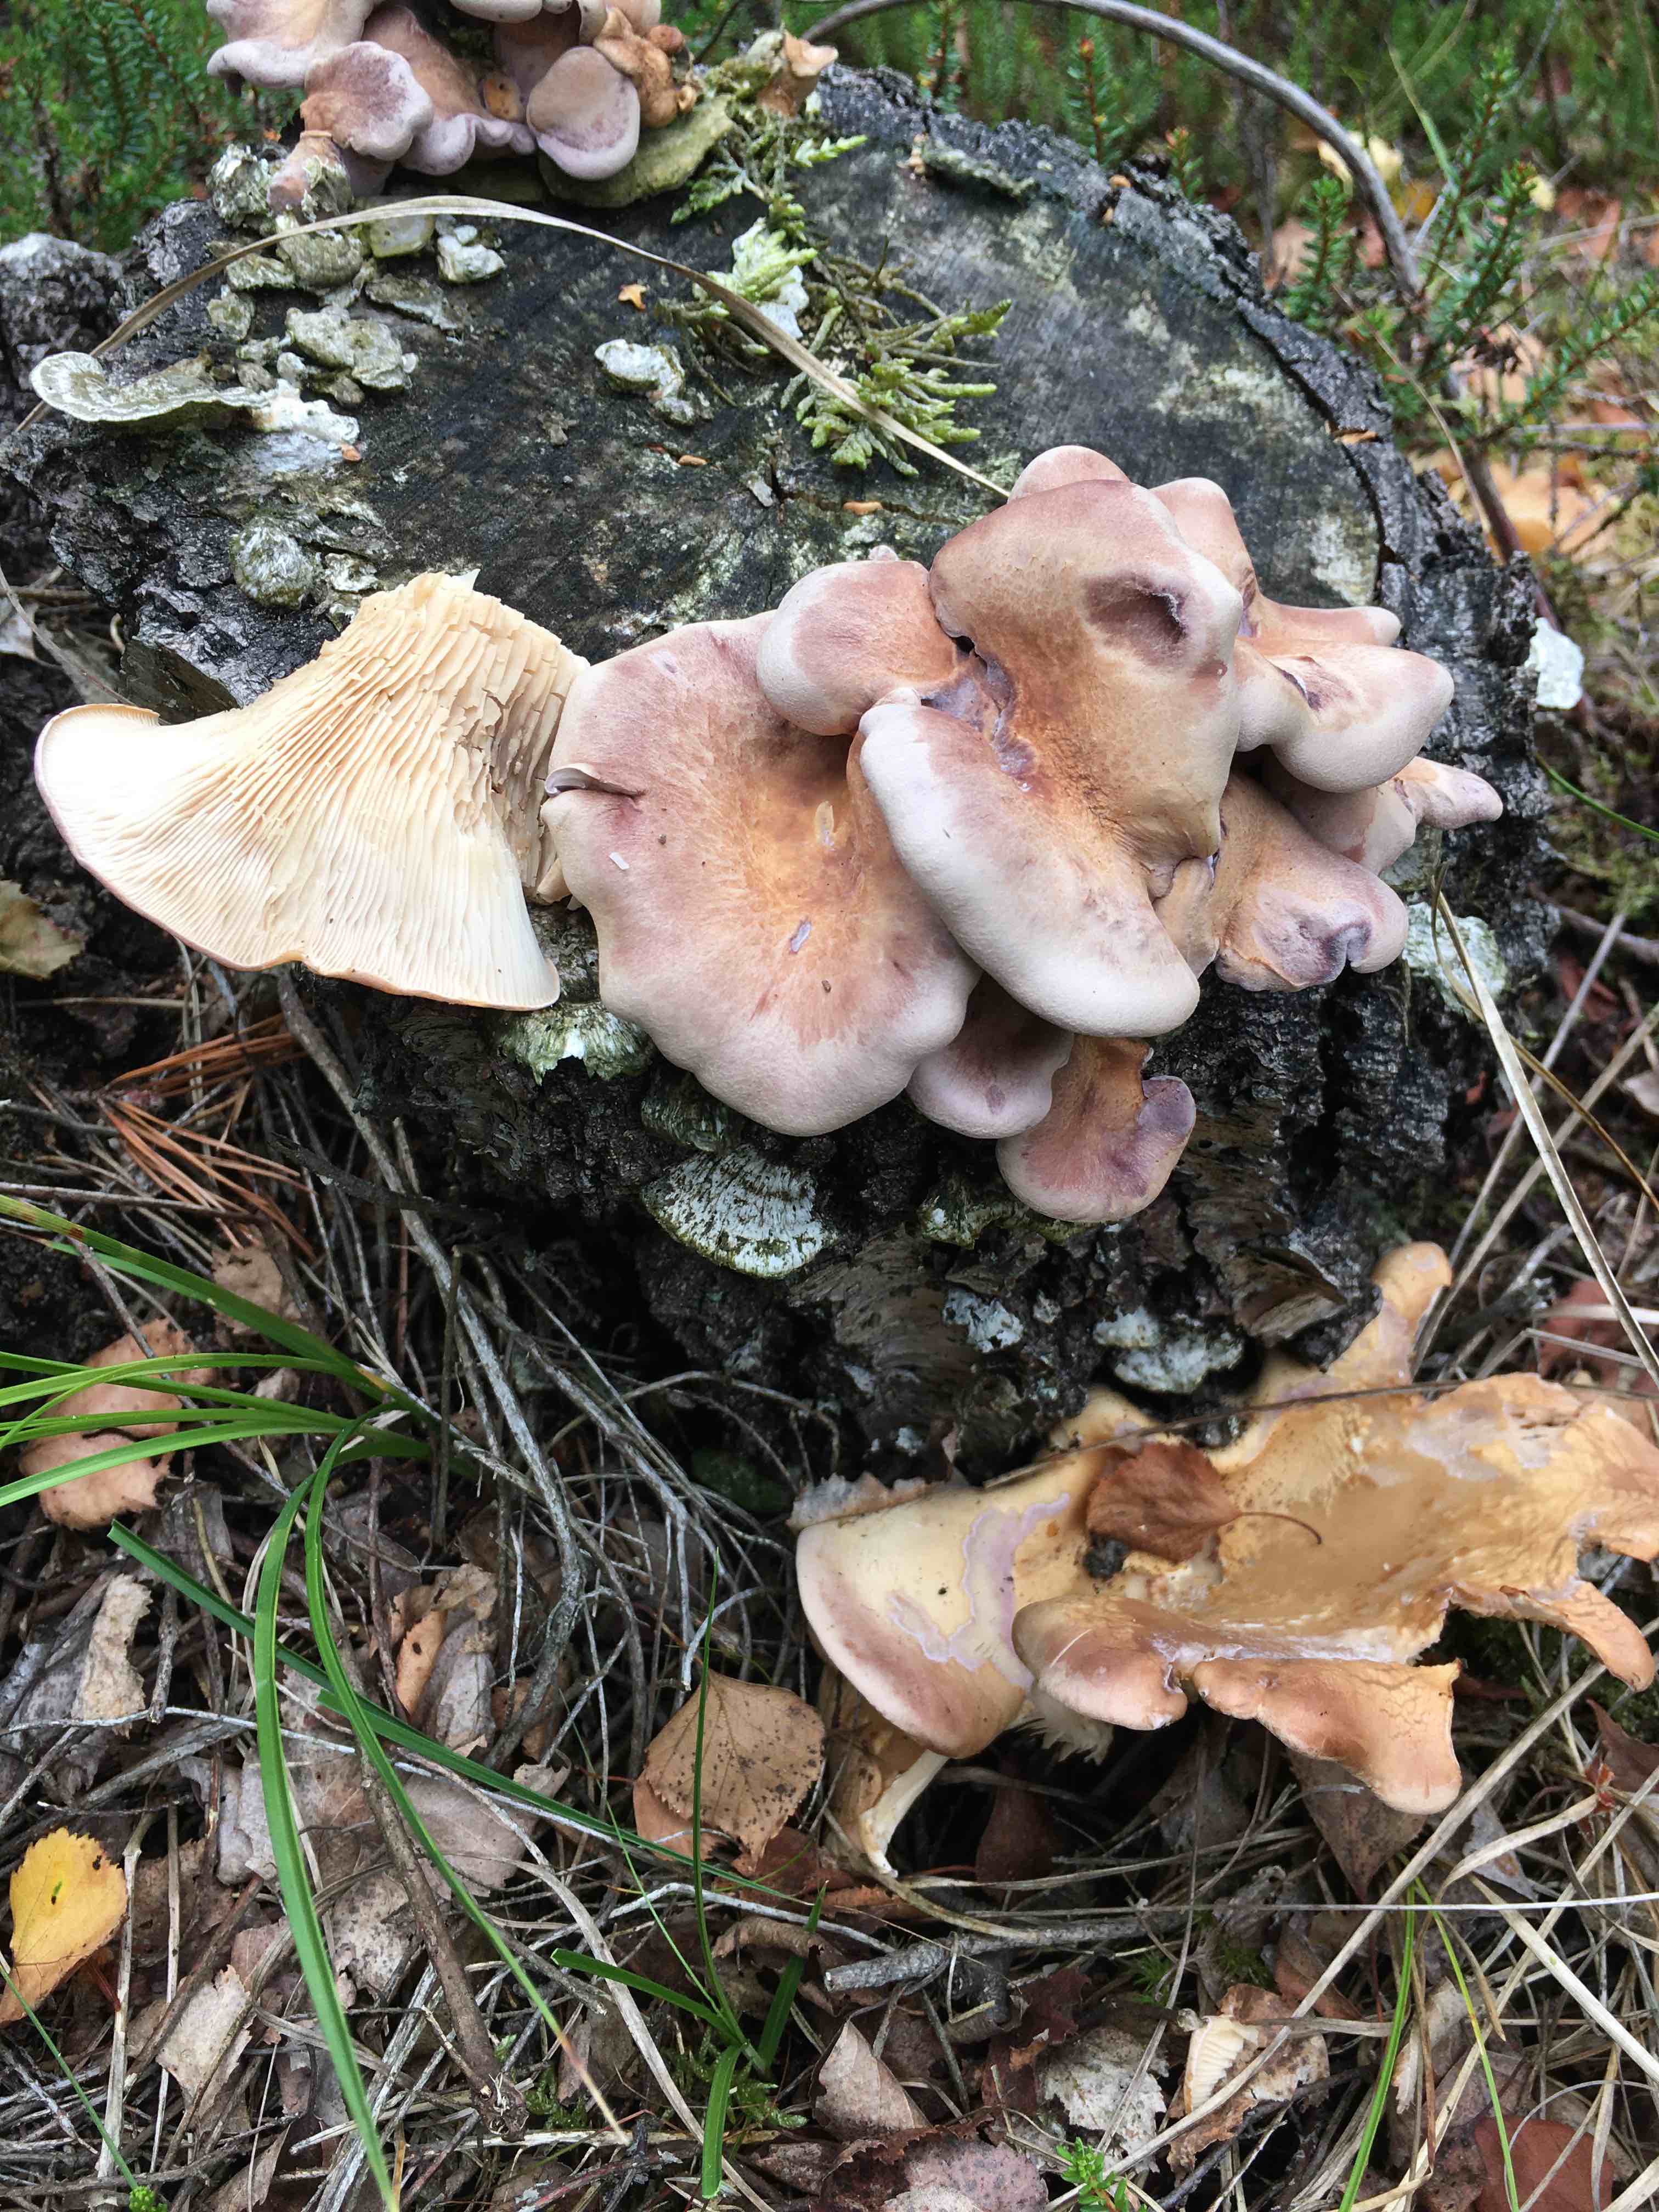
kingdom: Fungi
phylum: Basidiomycota
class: Agaricomycetes
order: Polyporales
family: Panaceae
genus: Panus
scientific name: Panus conchatus
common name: filtstokket læderhat
